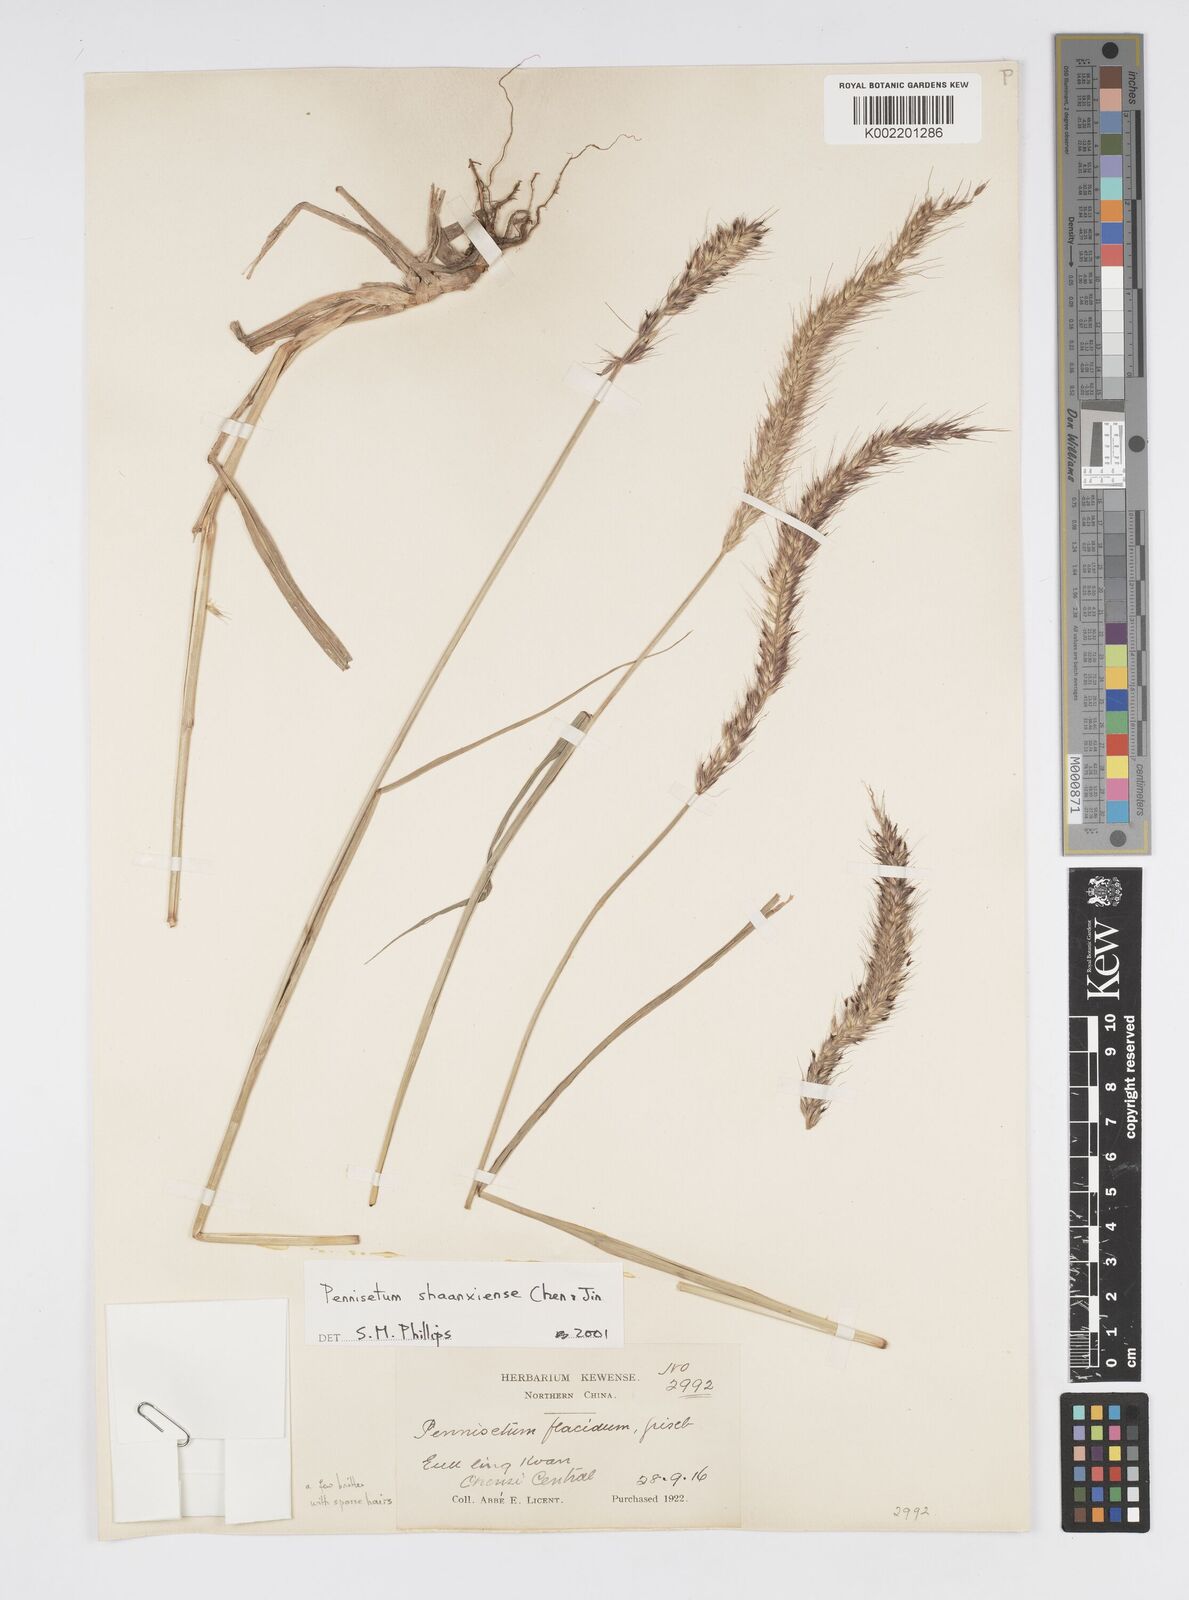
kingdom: Plantae
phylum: Tracheophyta
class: Liliopsida
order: Poales
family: Poaceae
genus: Cenchrus
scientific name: Cenchrus shaanxiensis
